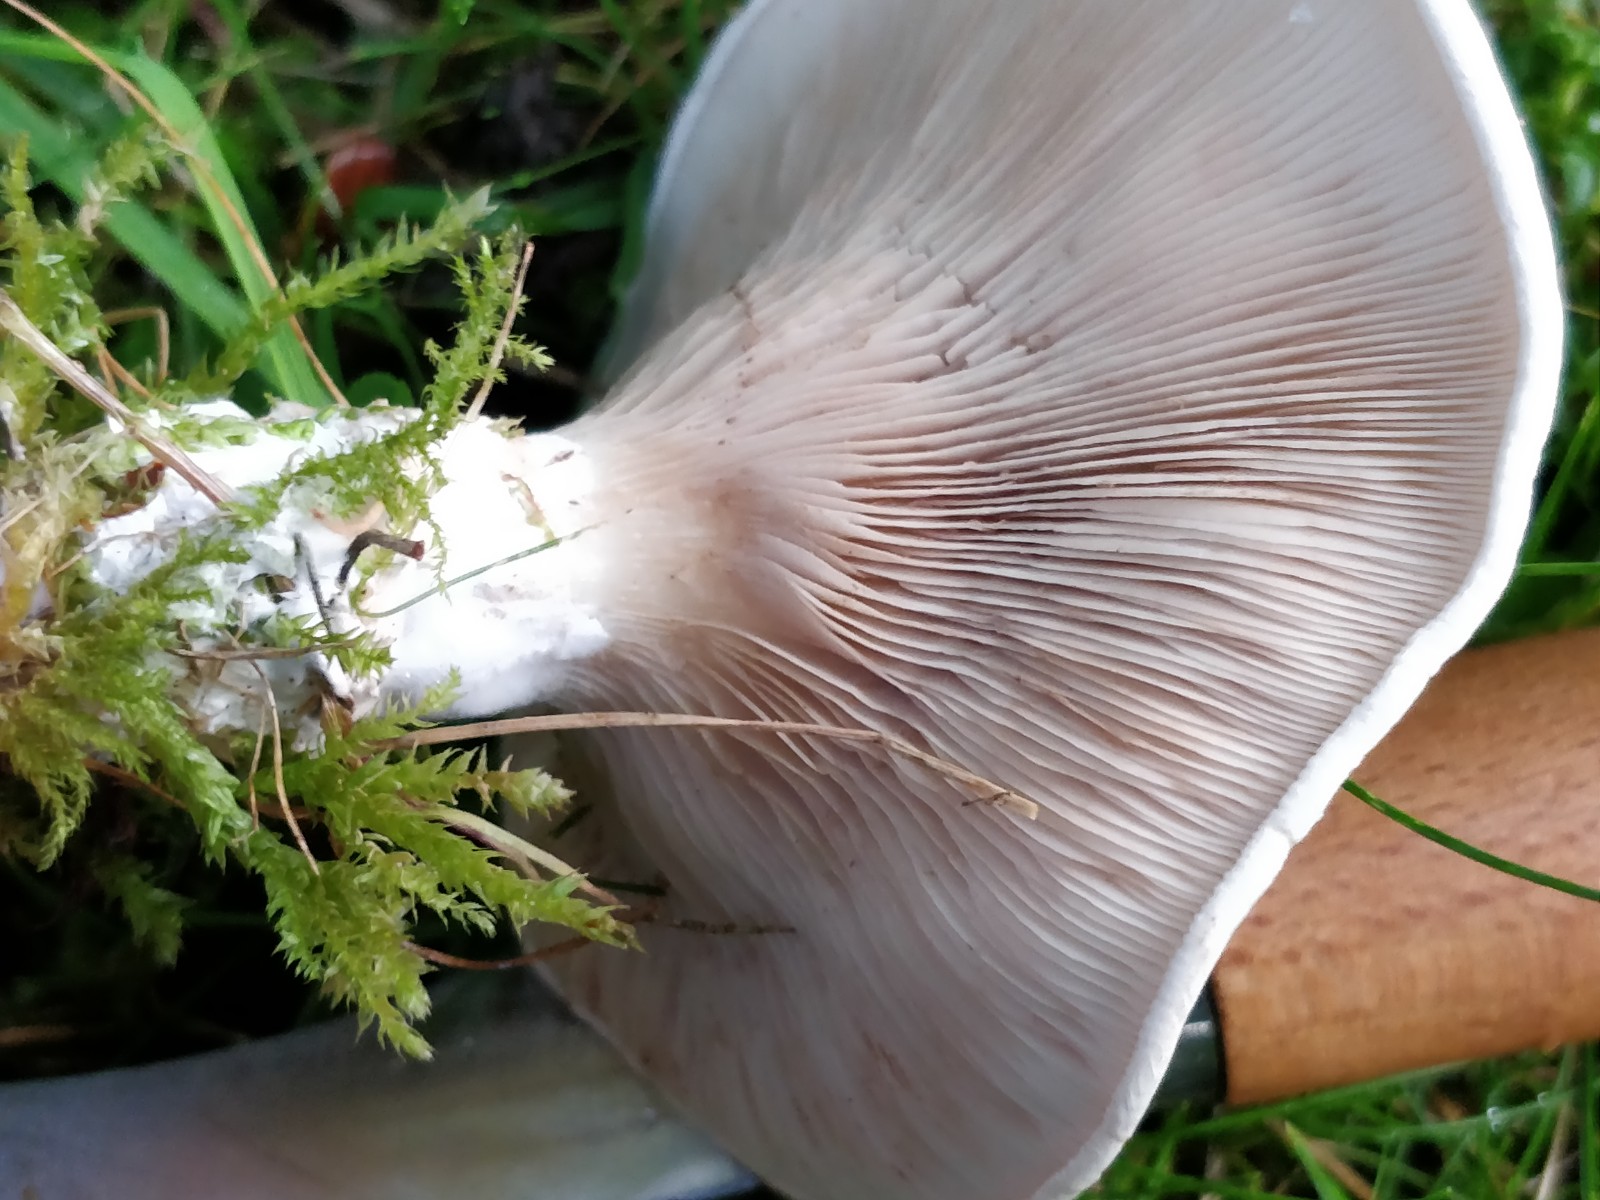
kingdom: Fungi
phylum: Basidiomycota
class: Agaricomycetes
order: Agaricales
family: Entolomataceae
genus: Clitopilus
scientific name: Clitopilus prunulus
